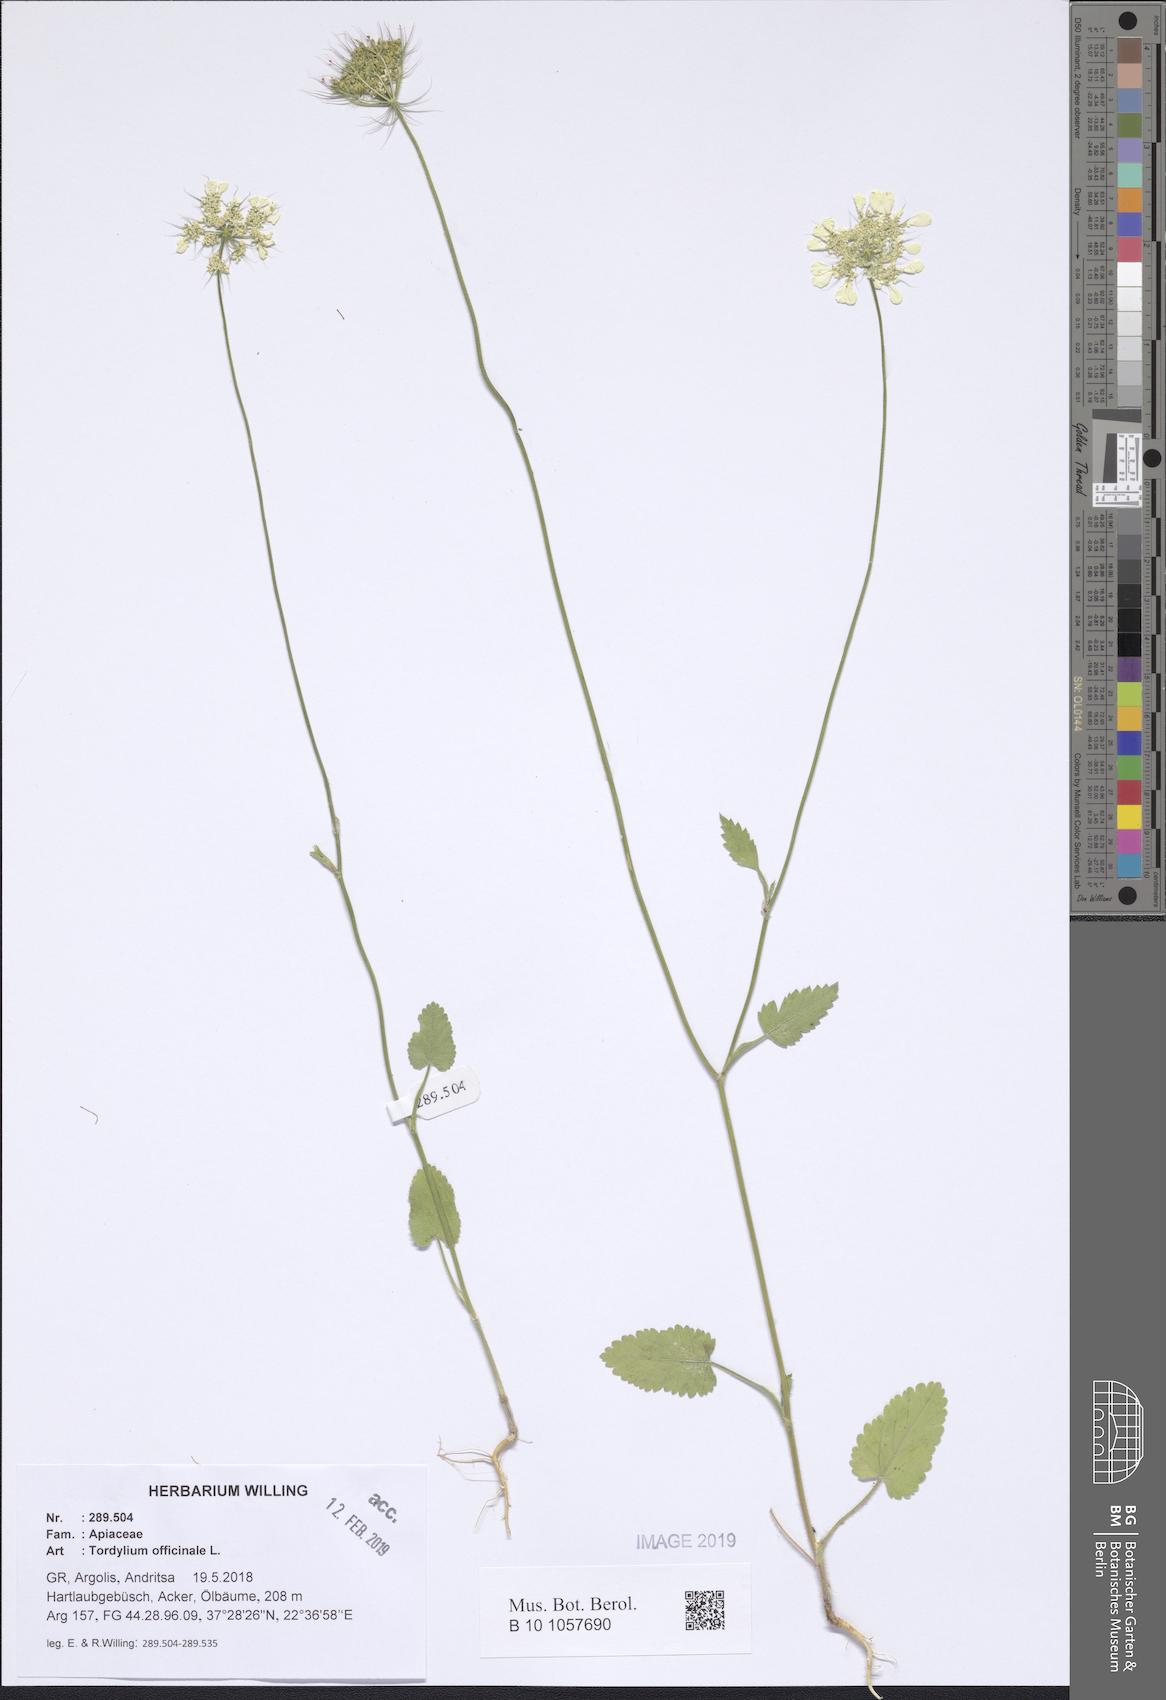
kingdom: Plantae
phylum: Tracheophyta
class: Magnoliopsida
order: Apiales
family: Apiaceae
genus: Tordylium
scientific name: Tordylium officinale
